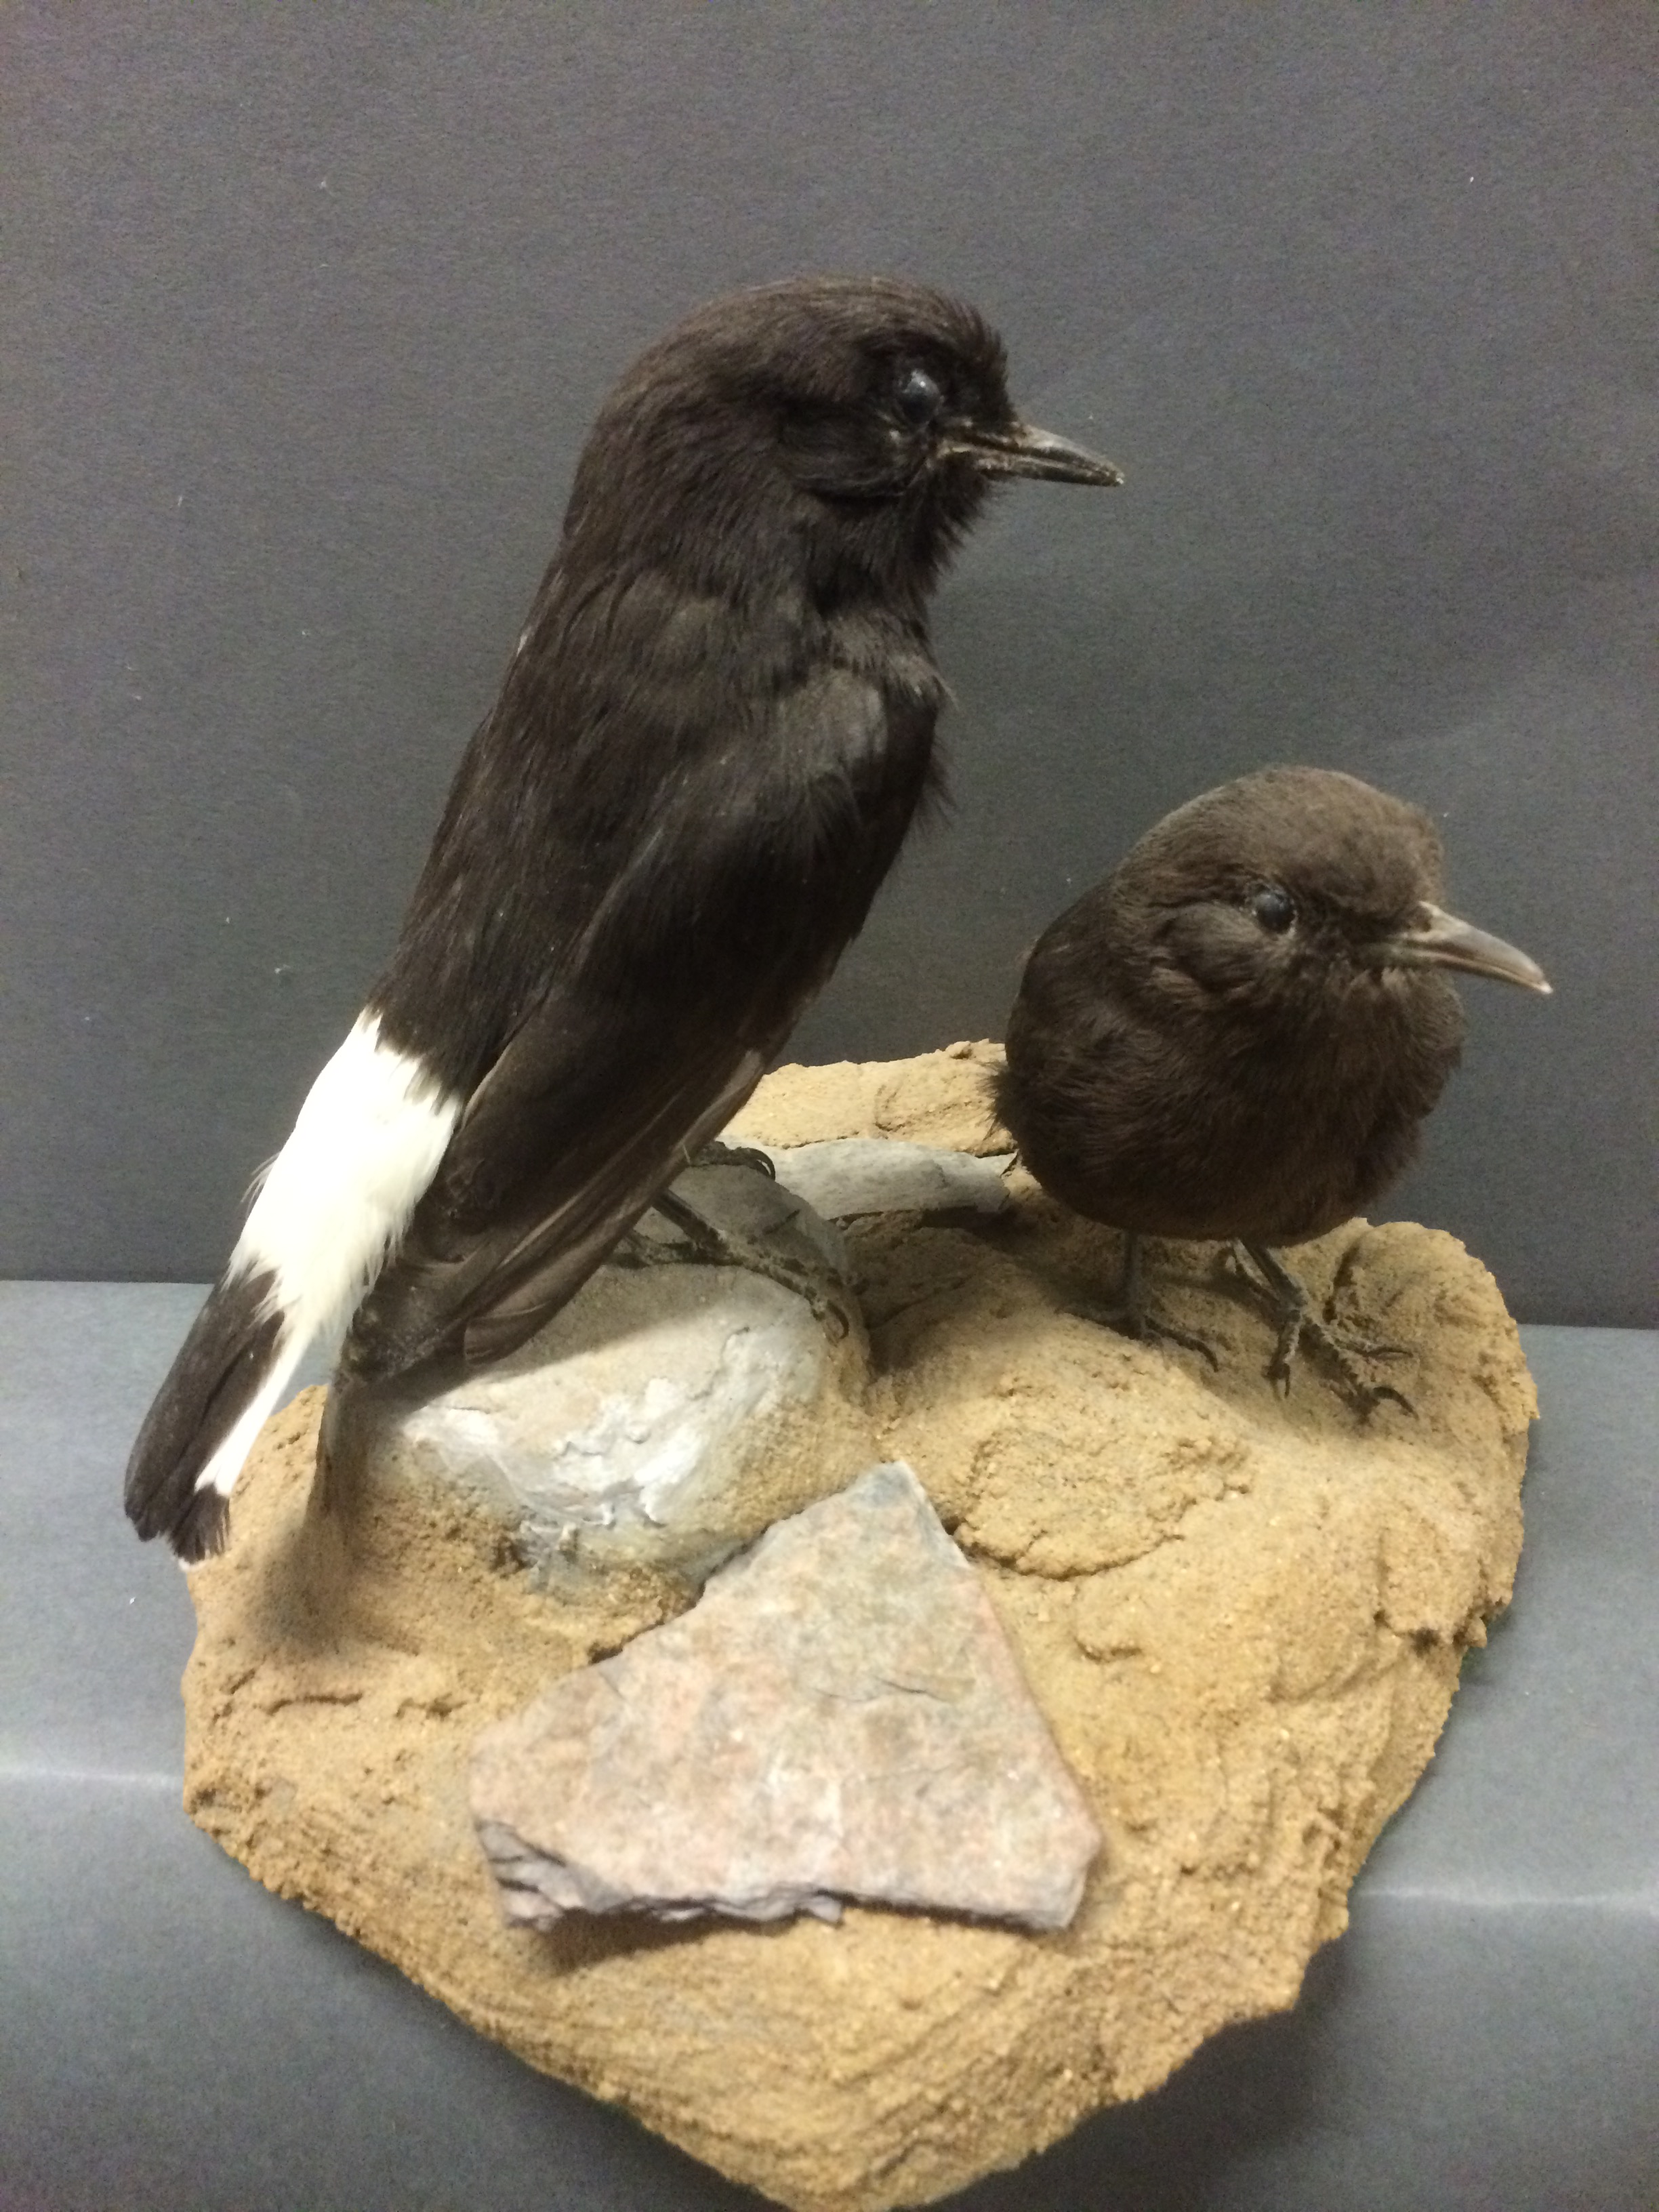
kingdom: Animalia
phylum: Chordata
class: Aves
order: Passeriformes
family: Muscicapidae
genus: Oenanthe
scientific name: Oenanthe leucura
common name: Black wheatear
